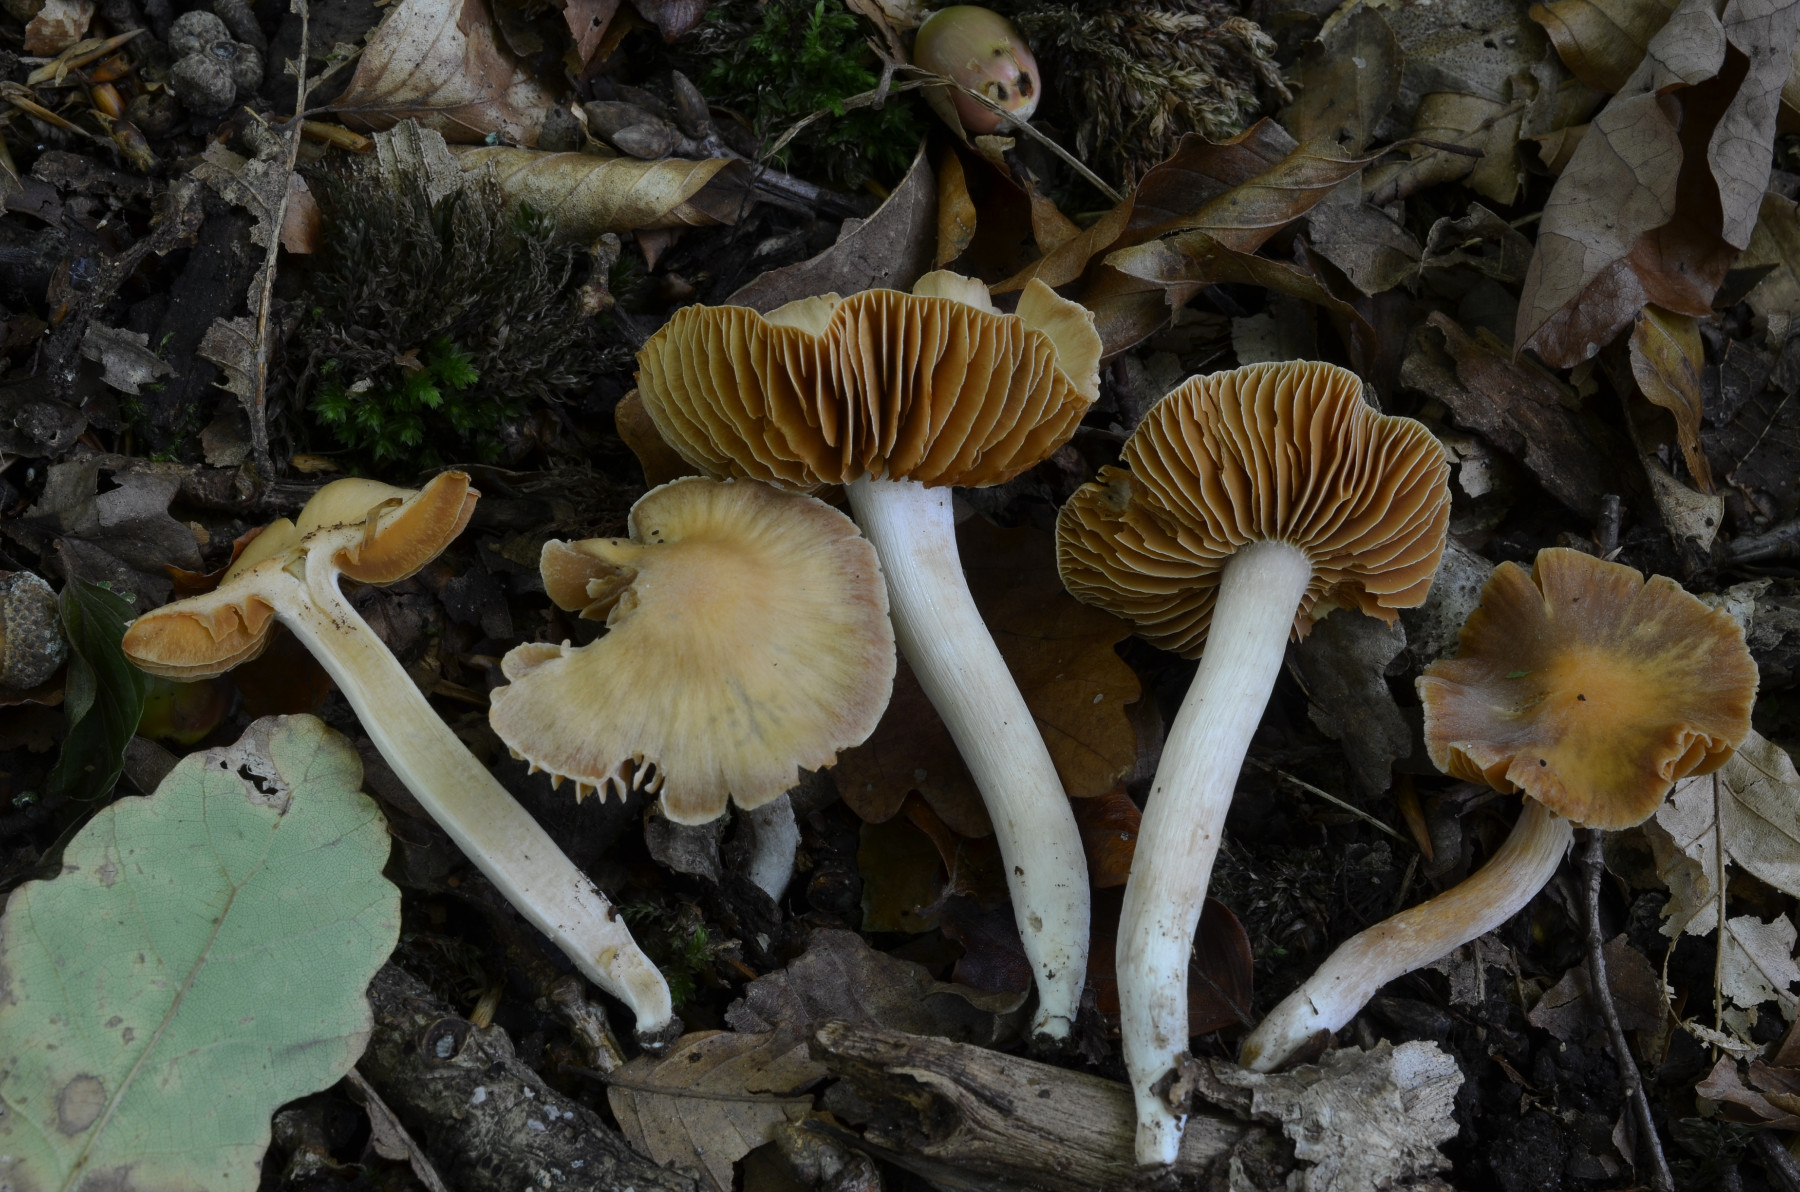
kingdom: Fungi
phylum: Basidiomycota
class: Agaricomycetes
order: Agaricales
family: Cortinariaceae
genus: Cortinarius
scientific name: Cortinarius vicinus
